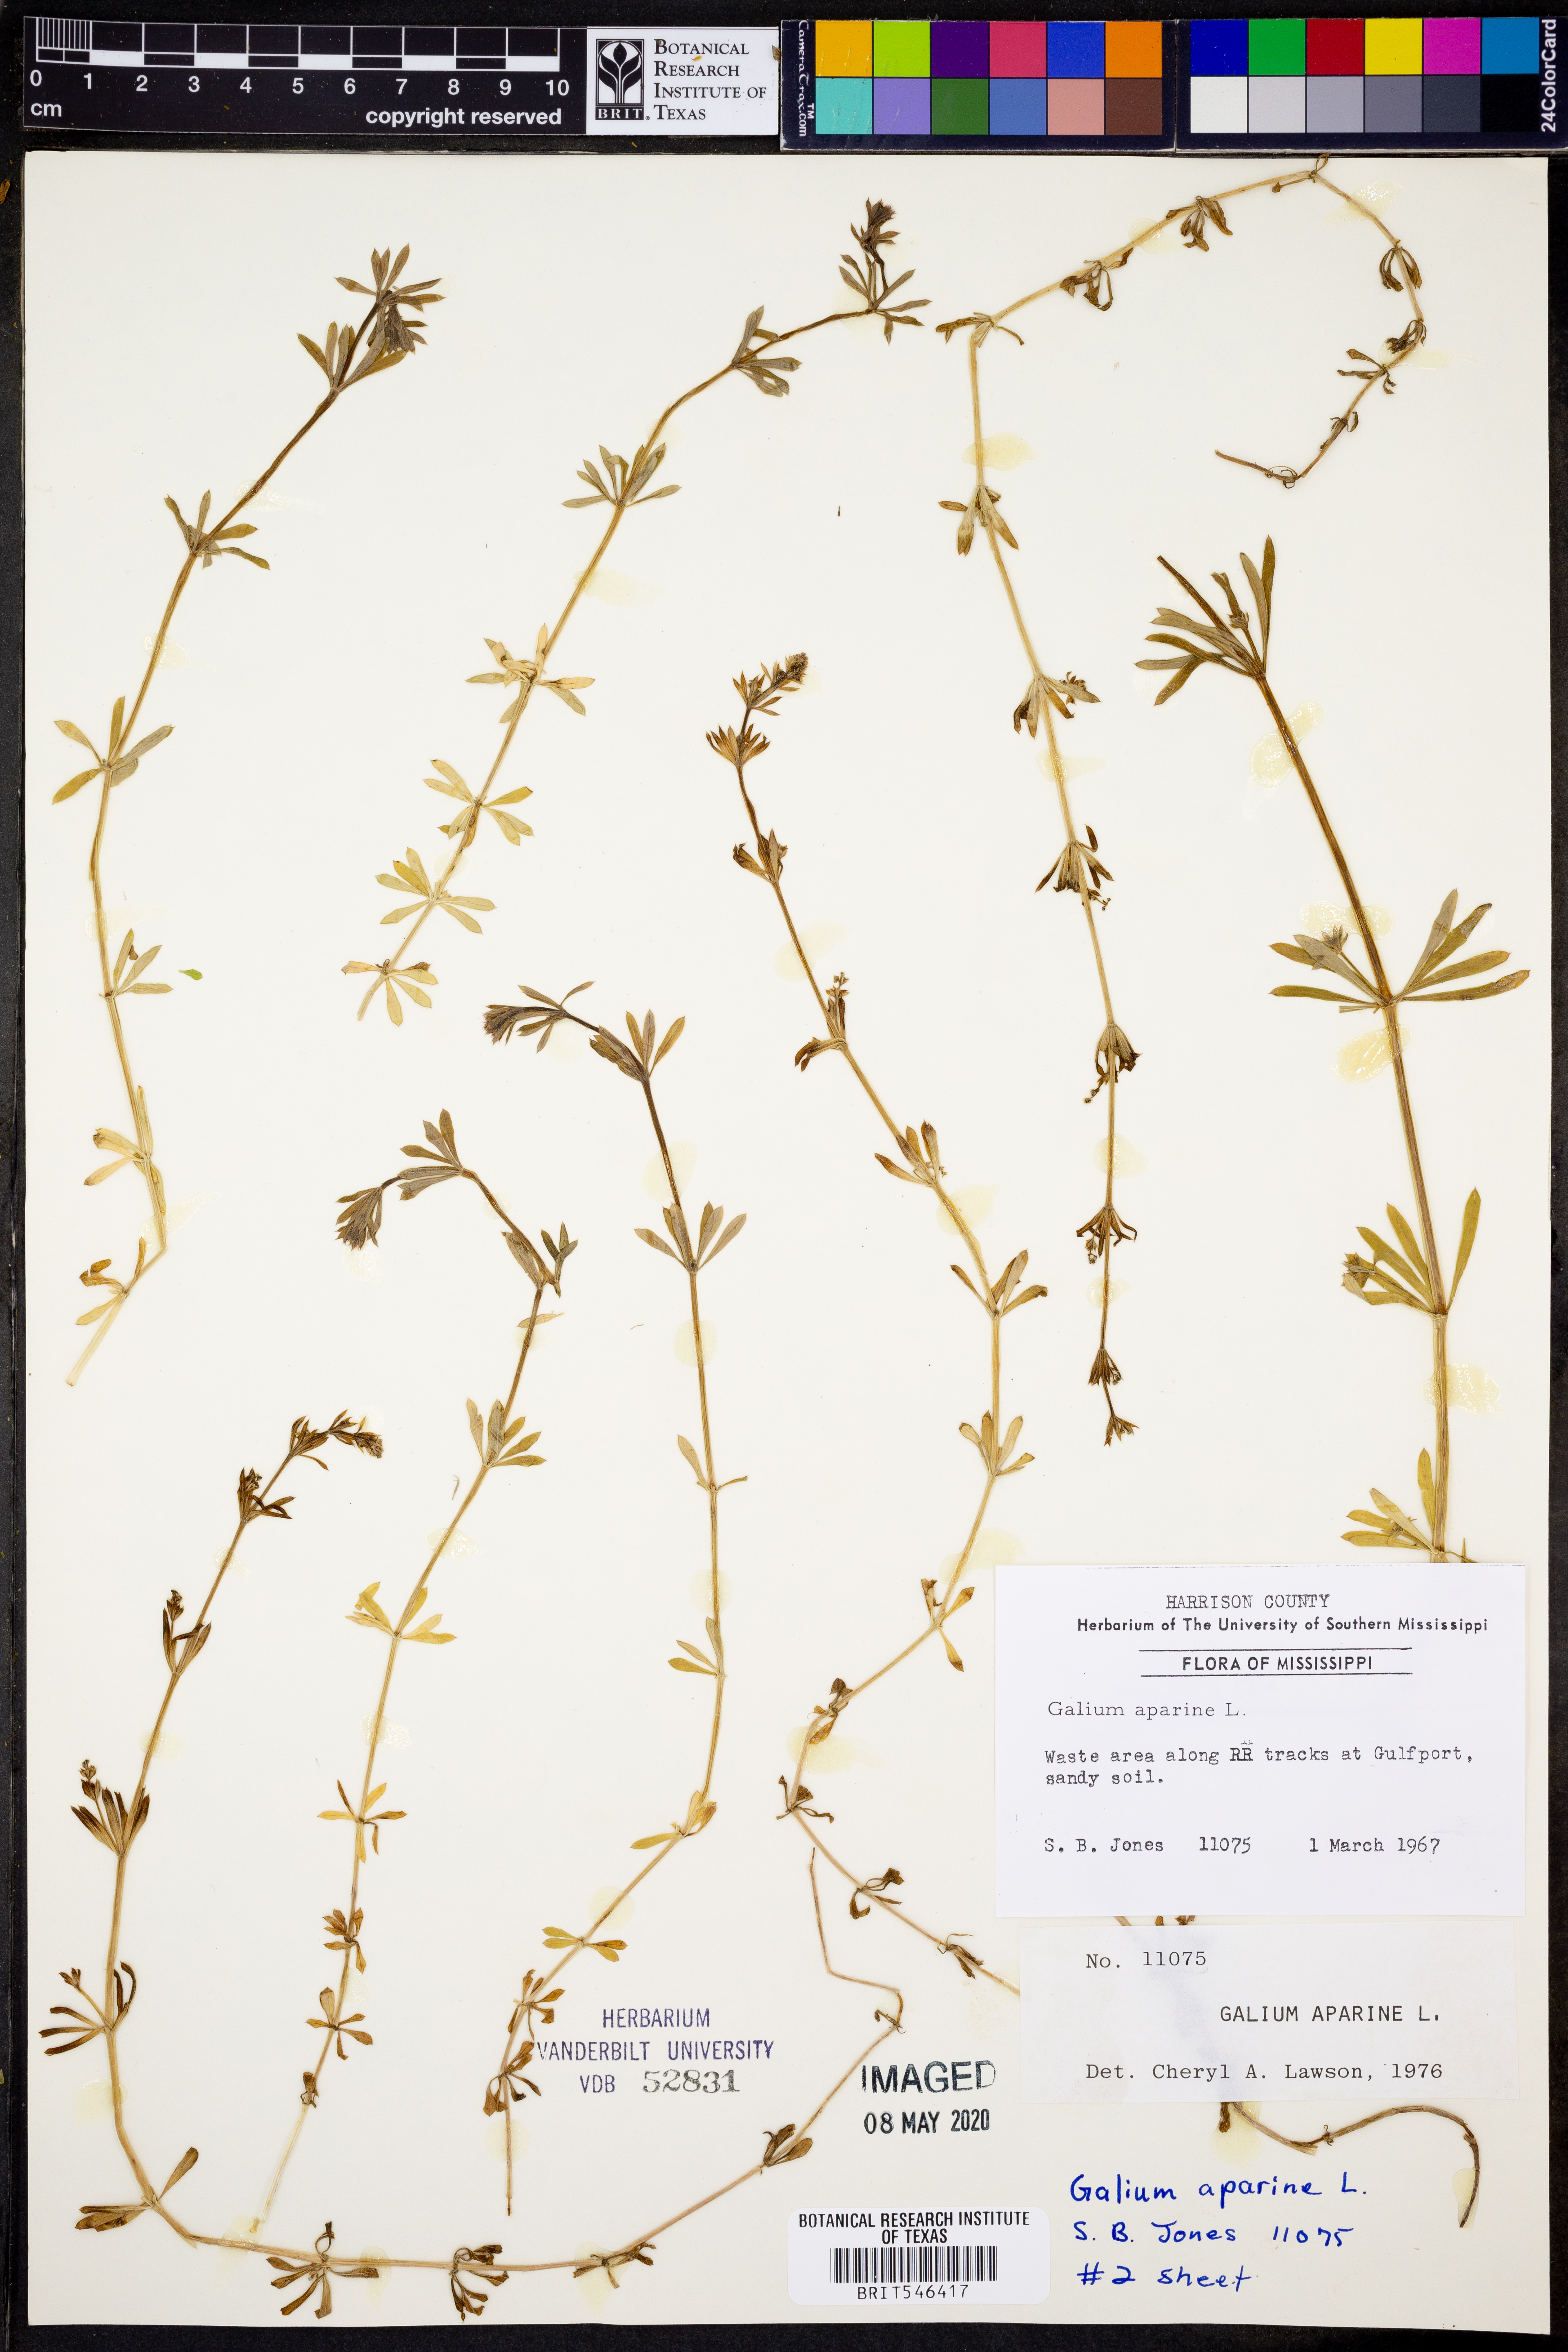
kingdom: Plantae
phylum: Tracheophyta
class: Magnoliopsida
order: Gentianales
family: Rubiaceae
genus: Galium
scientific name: Galium aparine
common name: Cleavers
